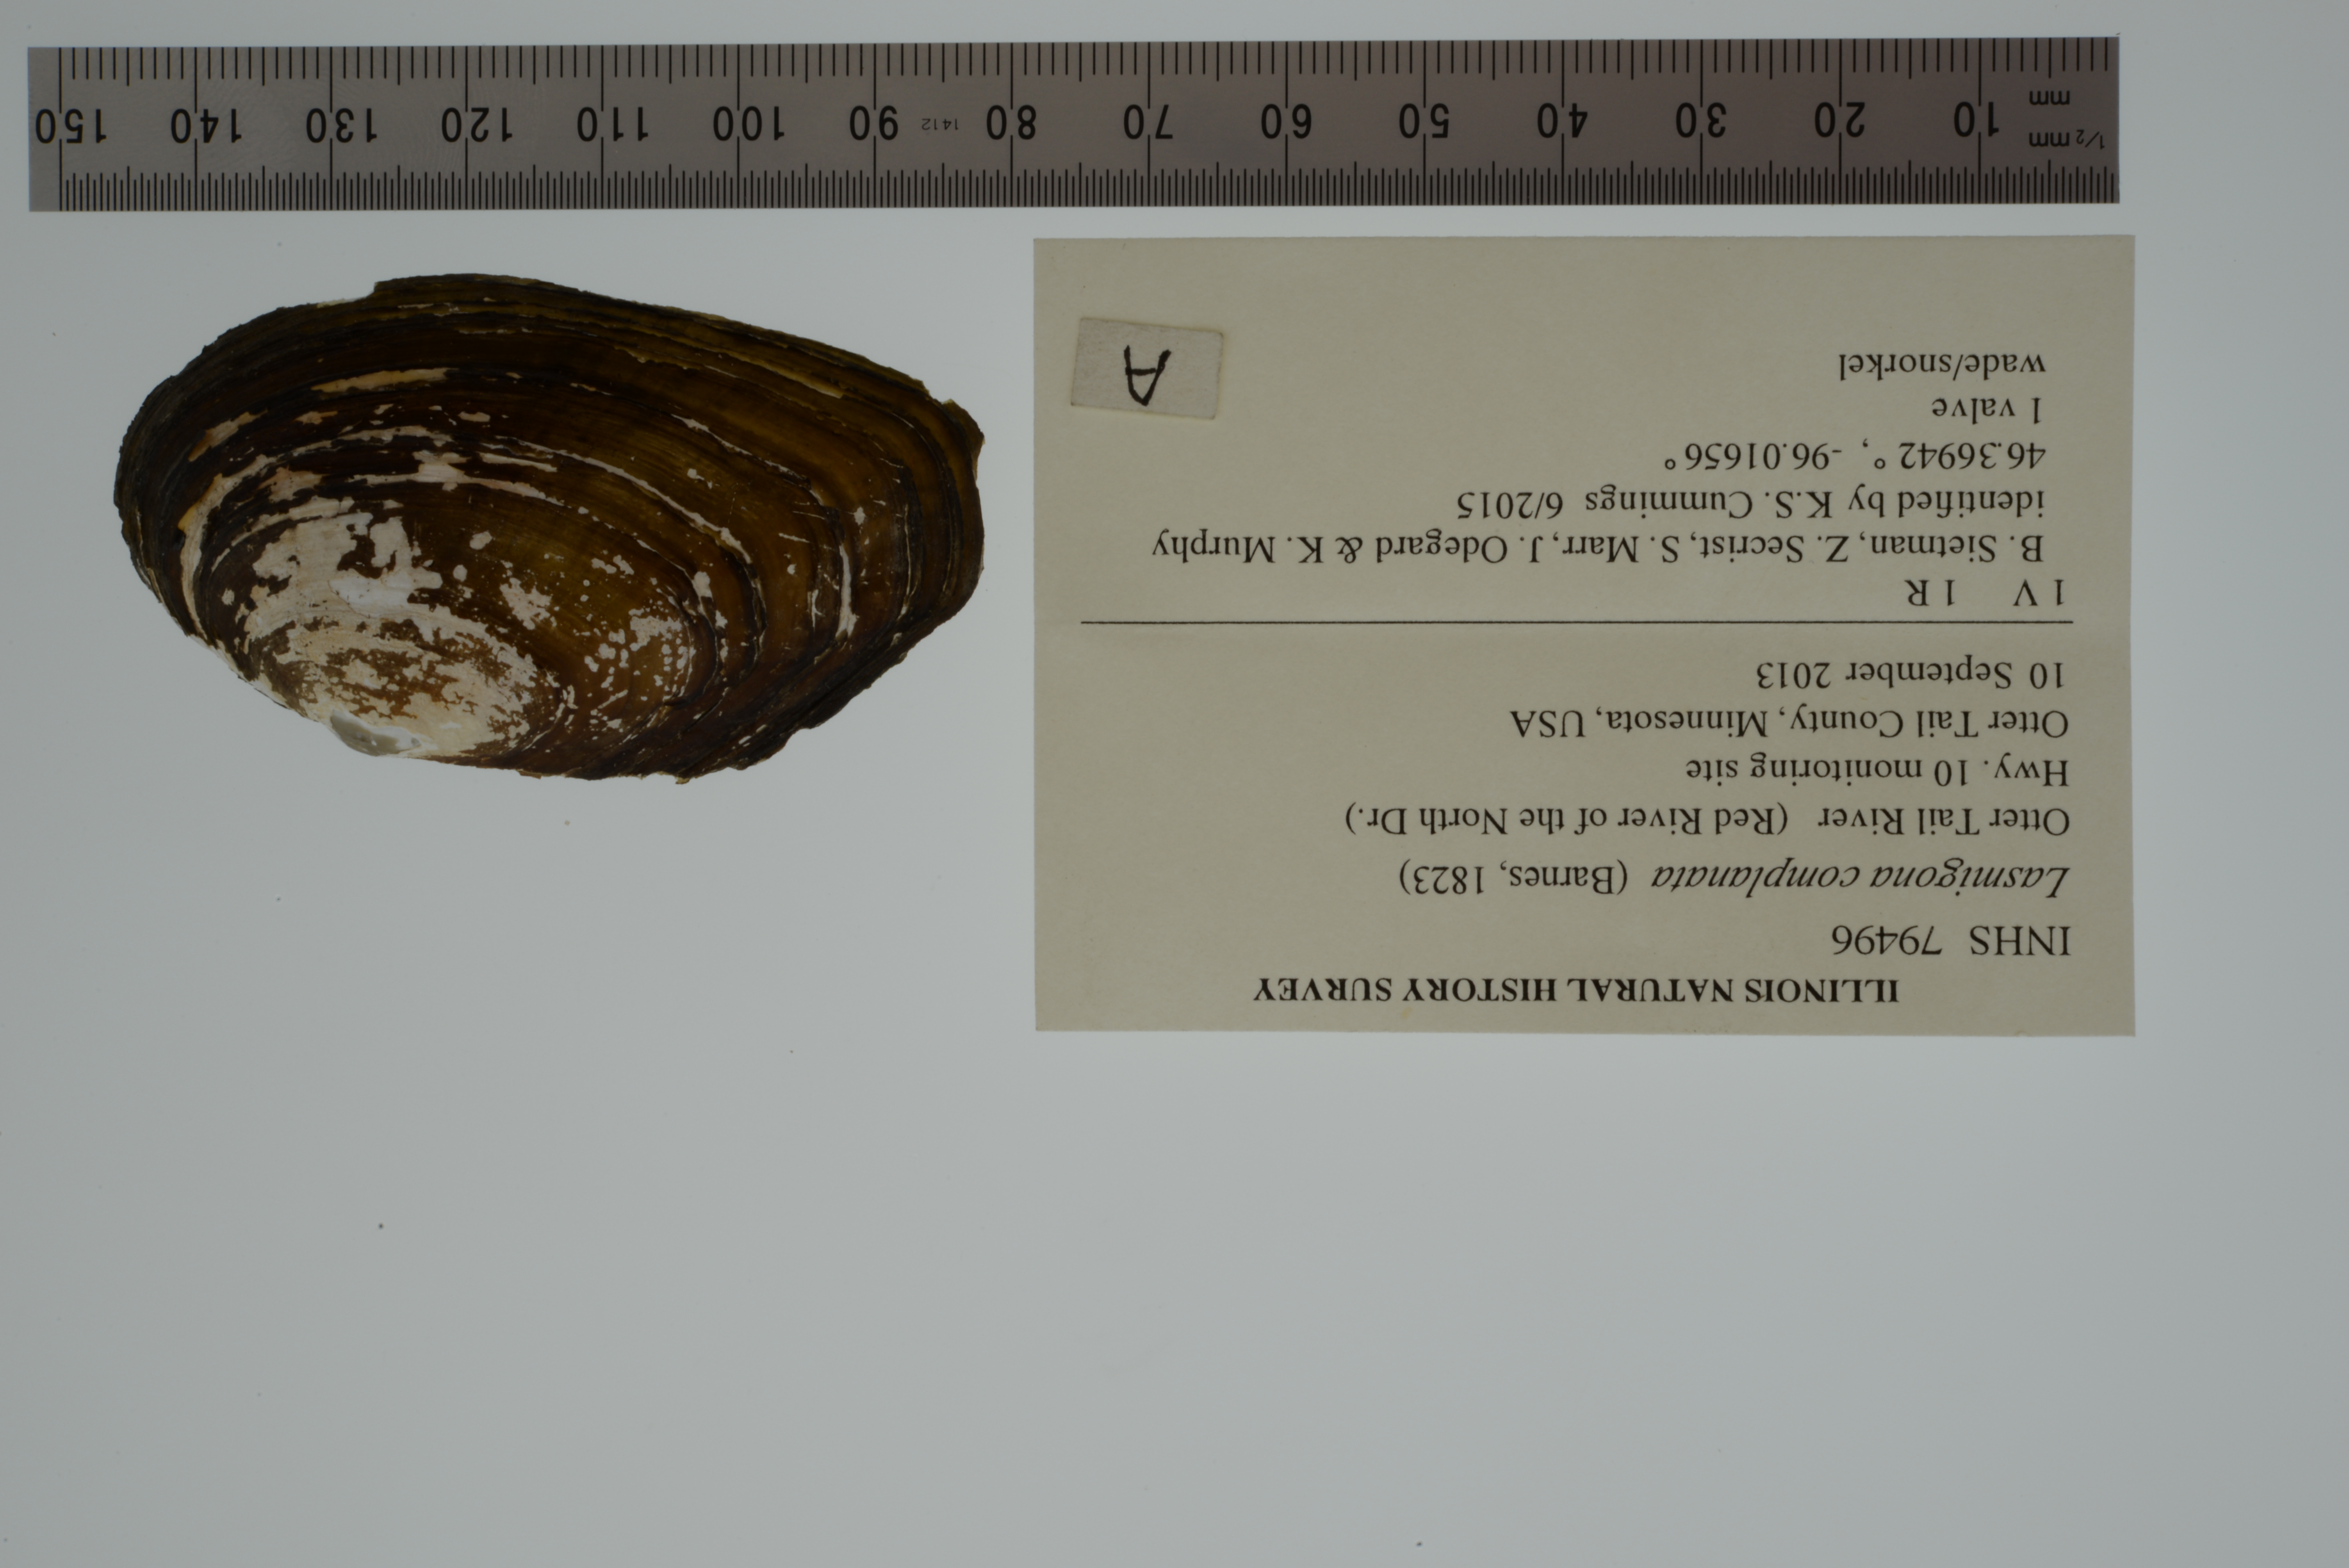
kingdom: Animalia
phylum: Mollusca
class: Bivalvia
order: Unionida
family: Unionidae
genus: Lasmigona
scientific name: Lasmigona complanata
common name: White heelsplitter
